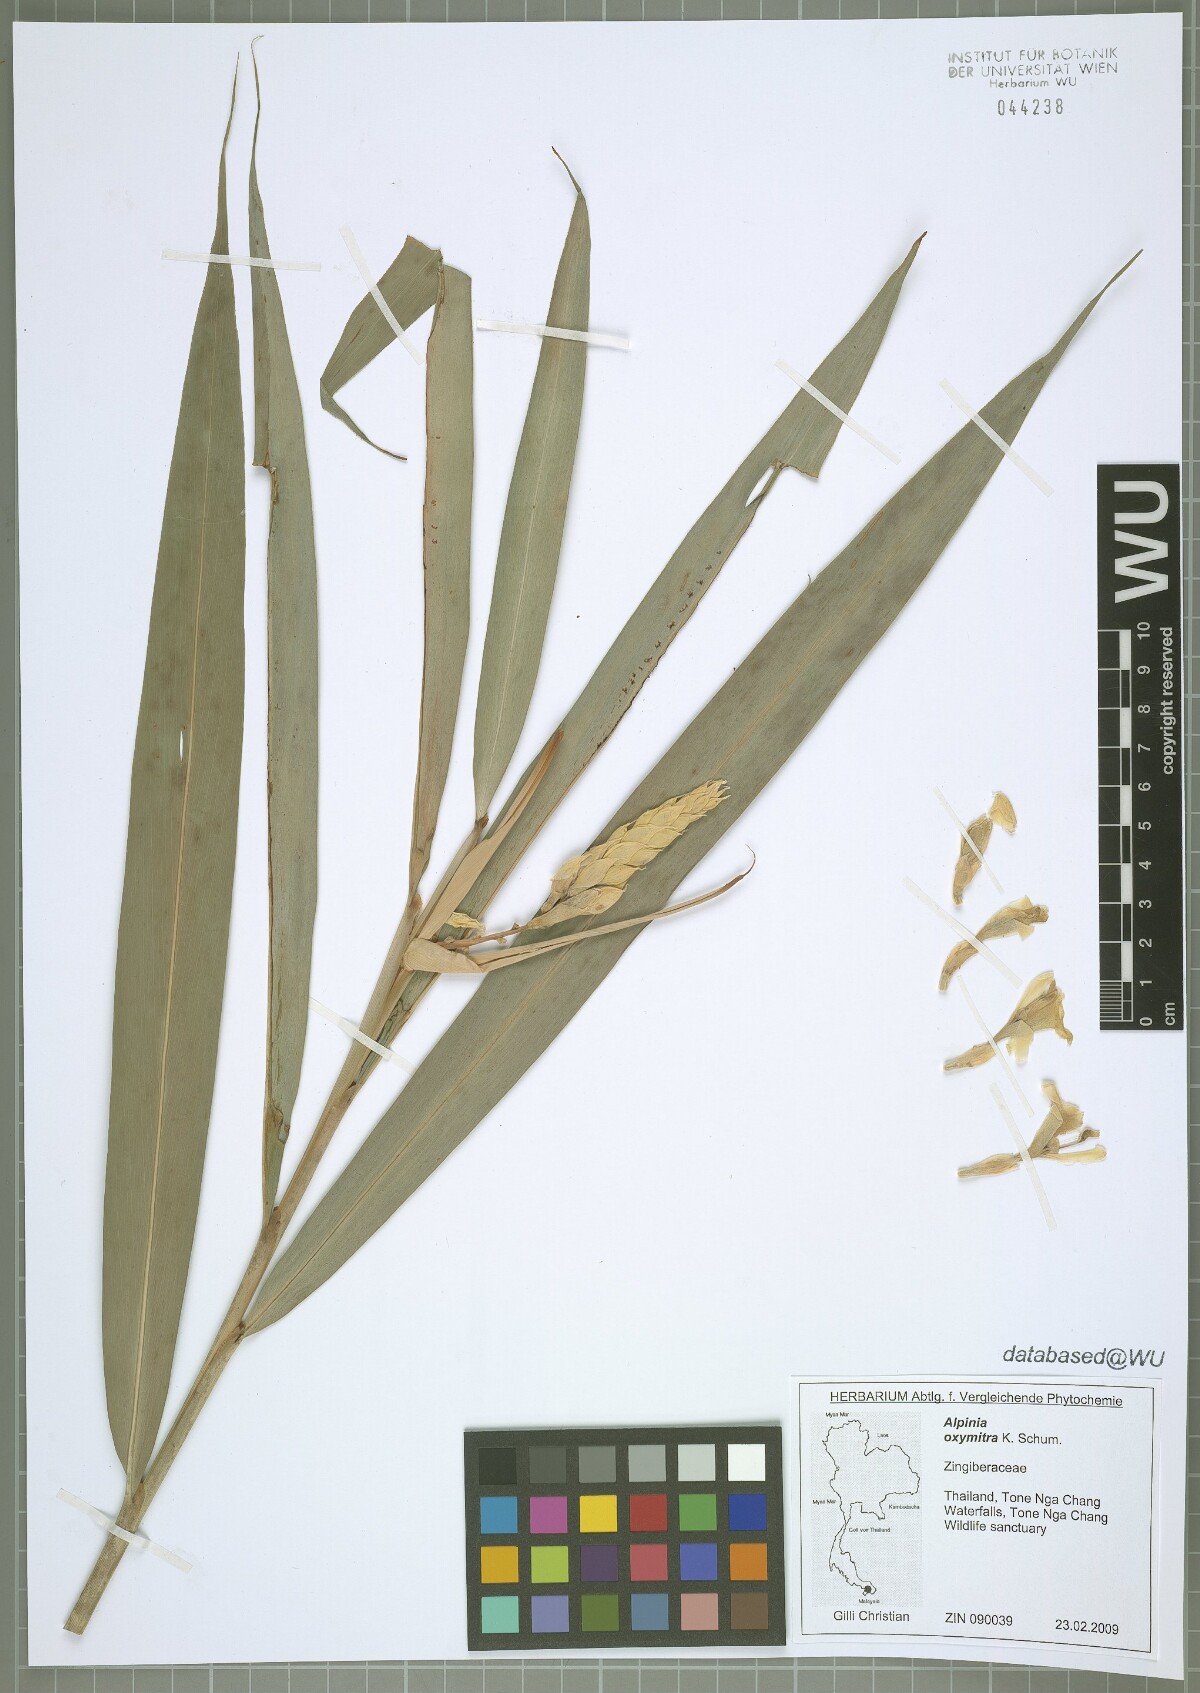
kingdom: Plantae
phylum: Tracheophyta
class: Liliopsida
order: Zingiberales
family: Zingiberaceae
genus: Alpinia
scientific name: Alpinia oxymitra
